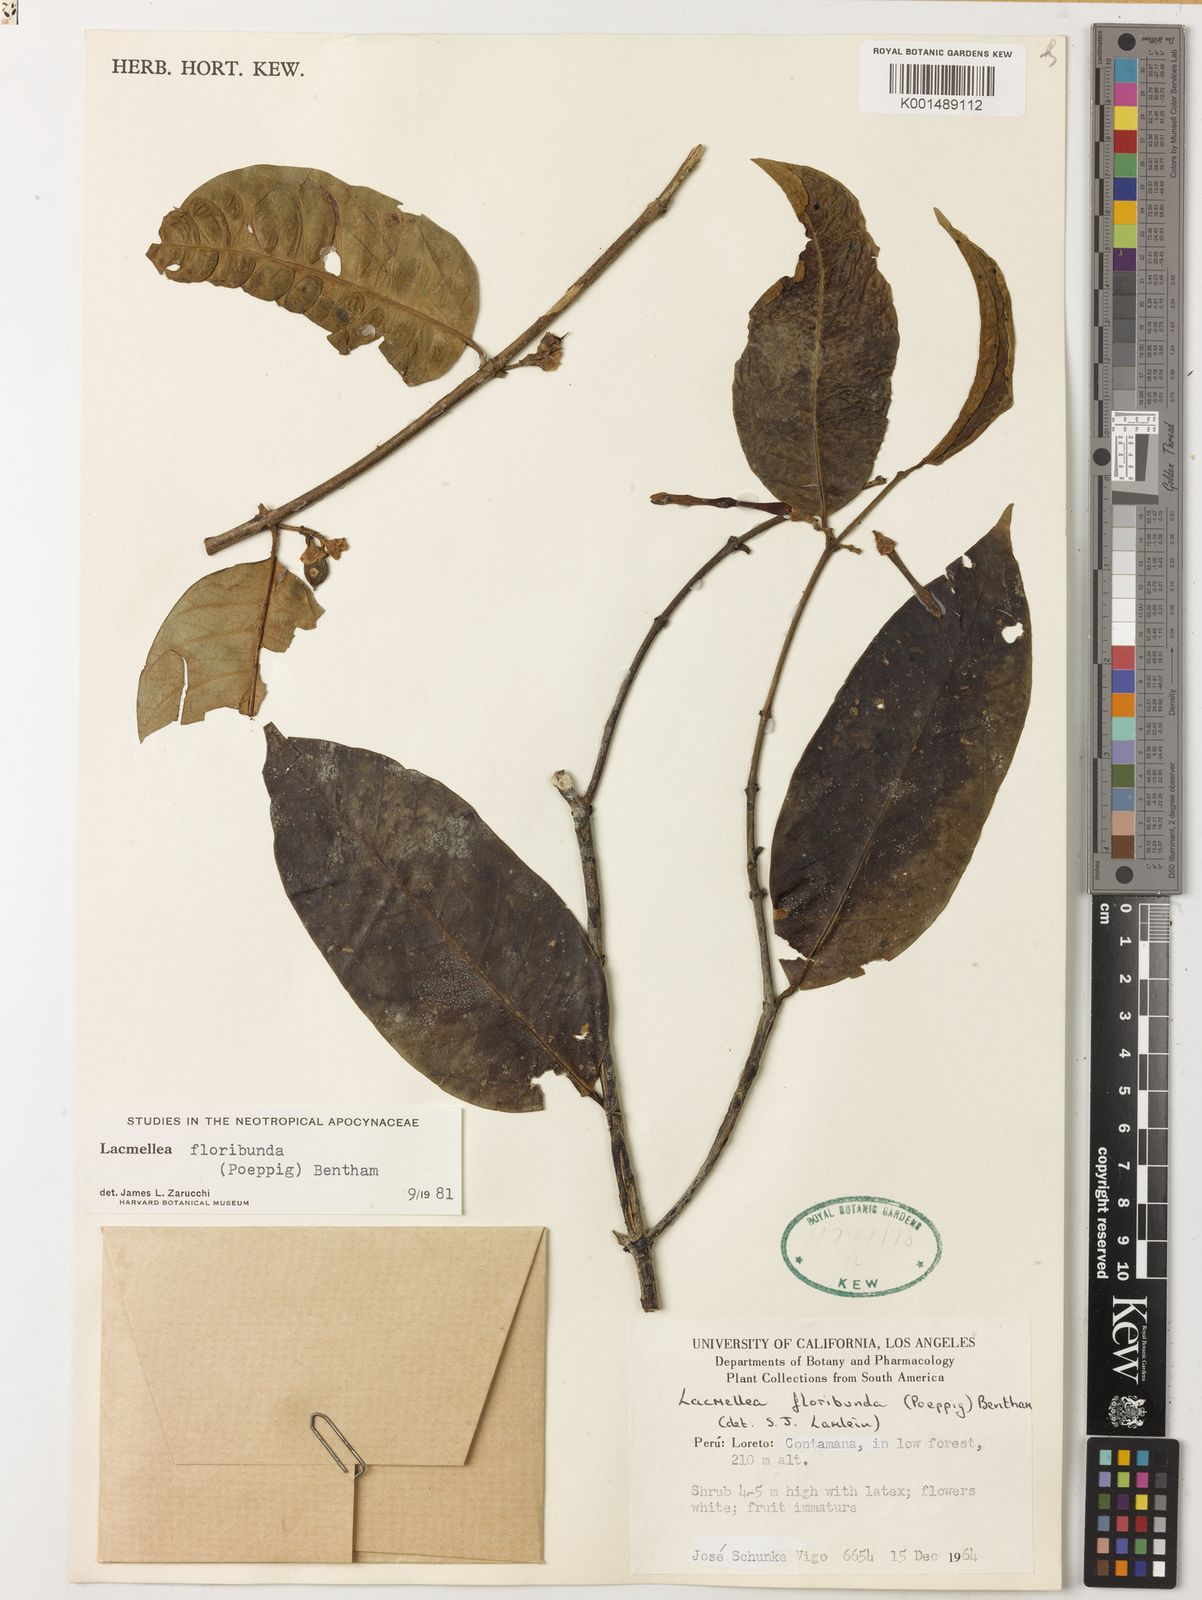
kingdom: Plantae
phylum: Tracheophyta
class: Magnoliopsida
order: Gentianales
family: Apocynaceae
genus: Lacmellea
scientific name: Lacmellea floribunda
